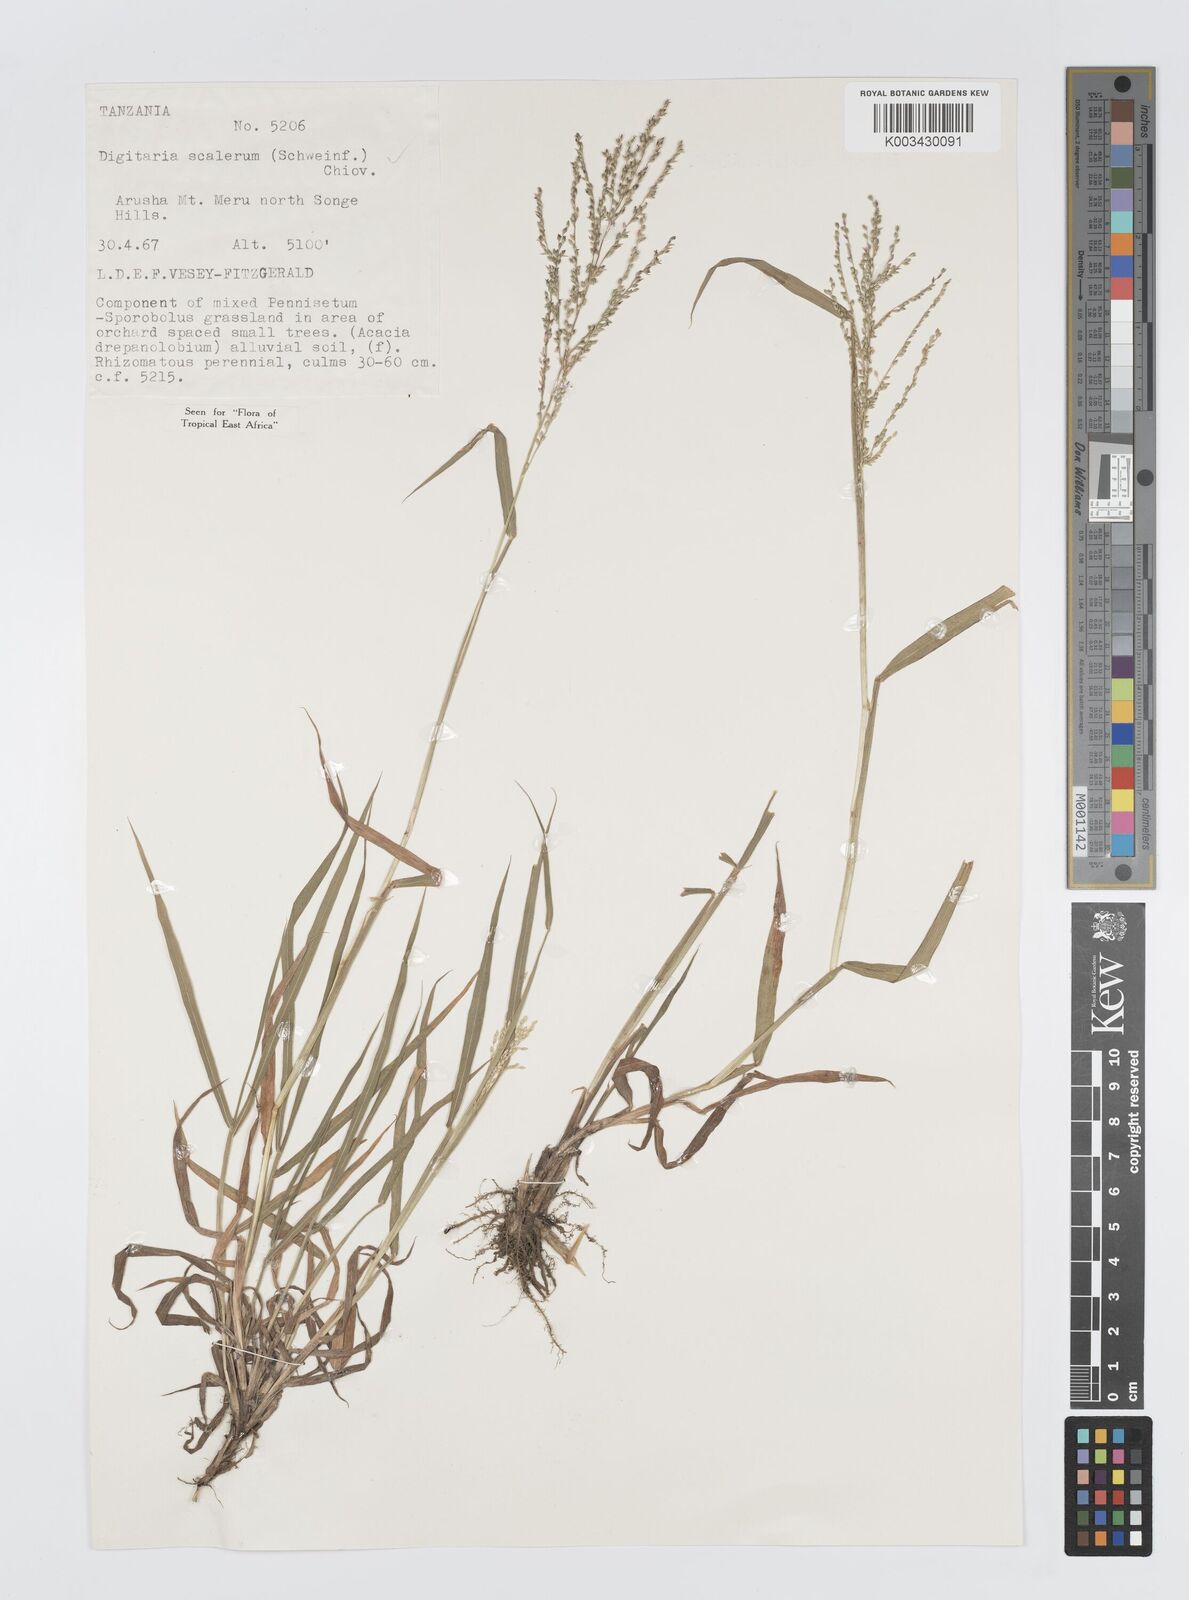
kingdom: Plantae
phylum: Tracheophyta
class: Liliopsida
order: Poales
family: Poaceae
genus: Digitaria
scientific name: Digitaria abyssinica
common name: African couchgrass
